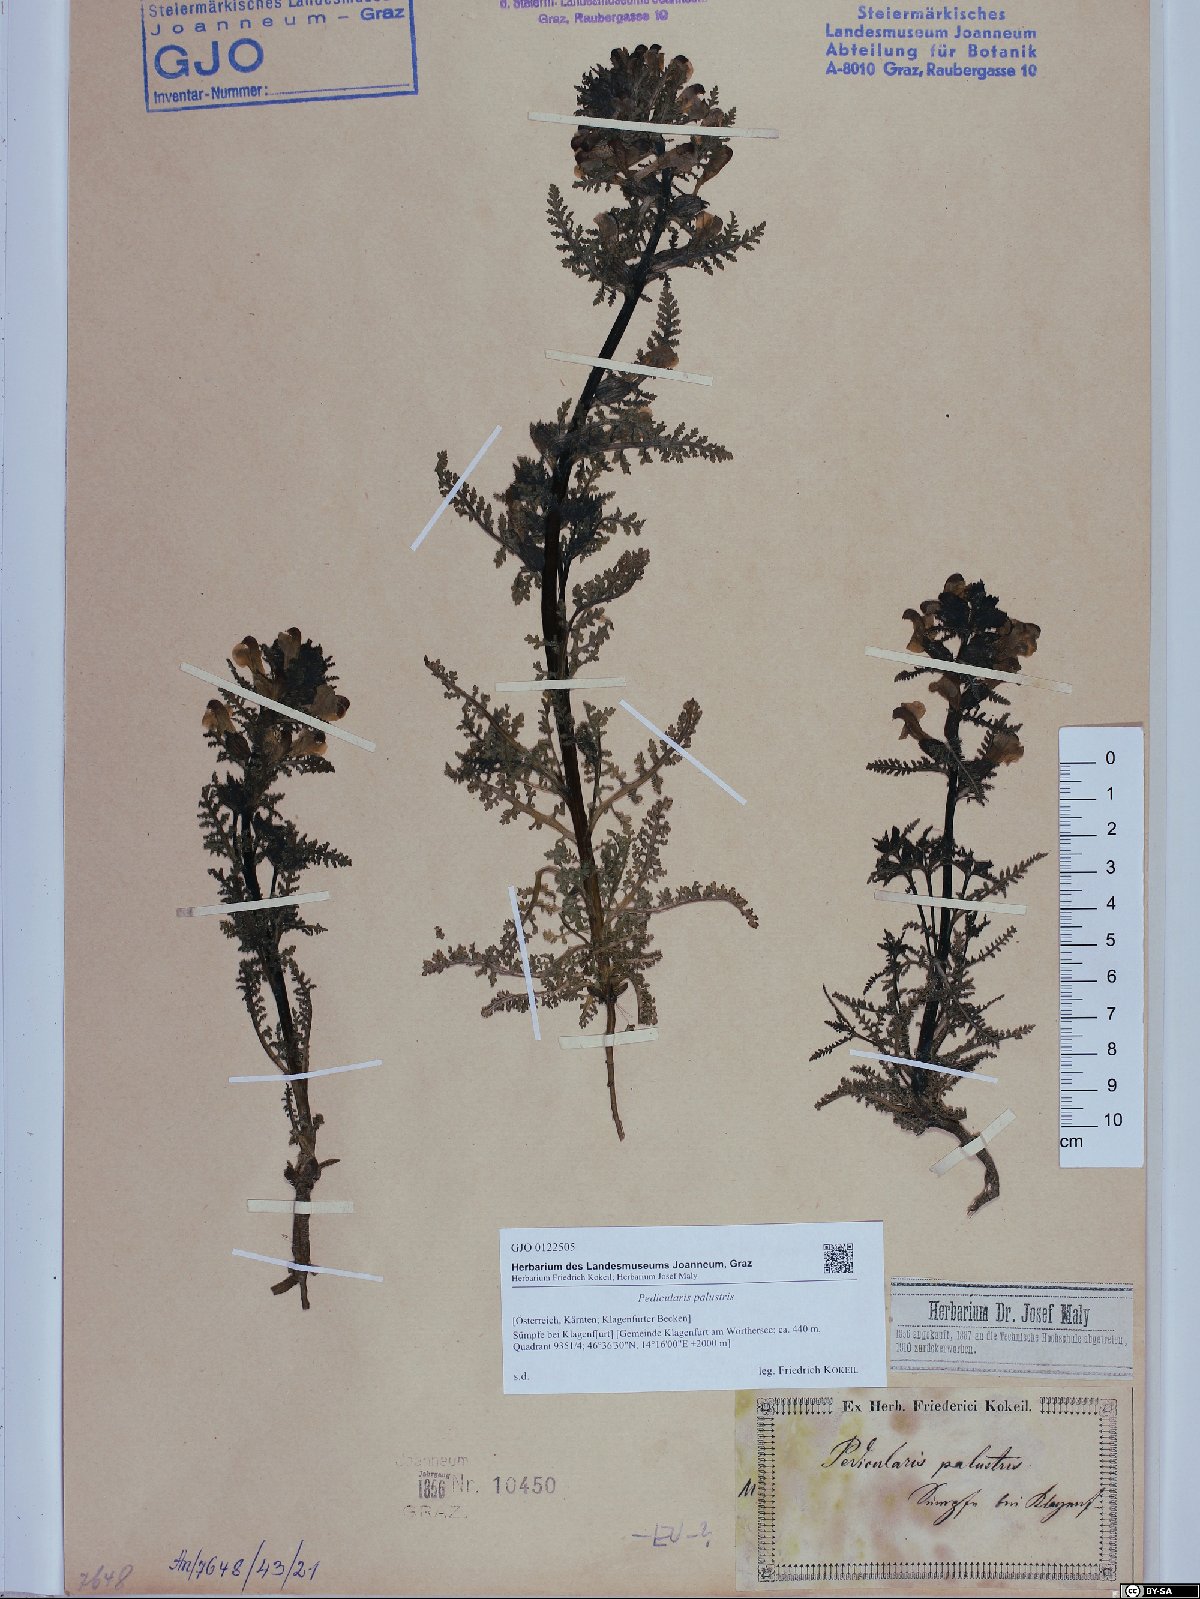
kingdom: Plantae
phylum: Tracheophyta
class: Magnoliopsida
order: Lamiales
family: Orobanchaceae
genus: Pedicularis
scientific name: Pedicularis palustris
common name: Marsh lousewort
